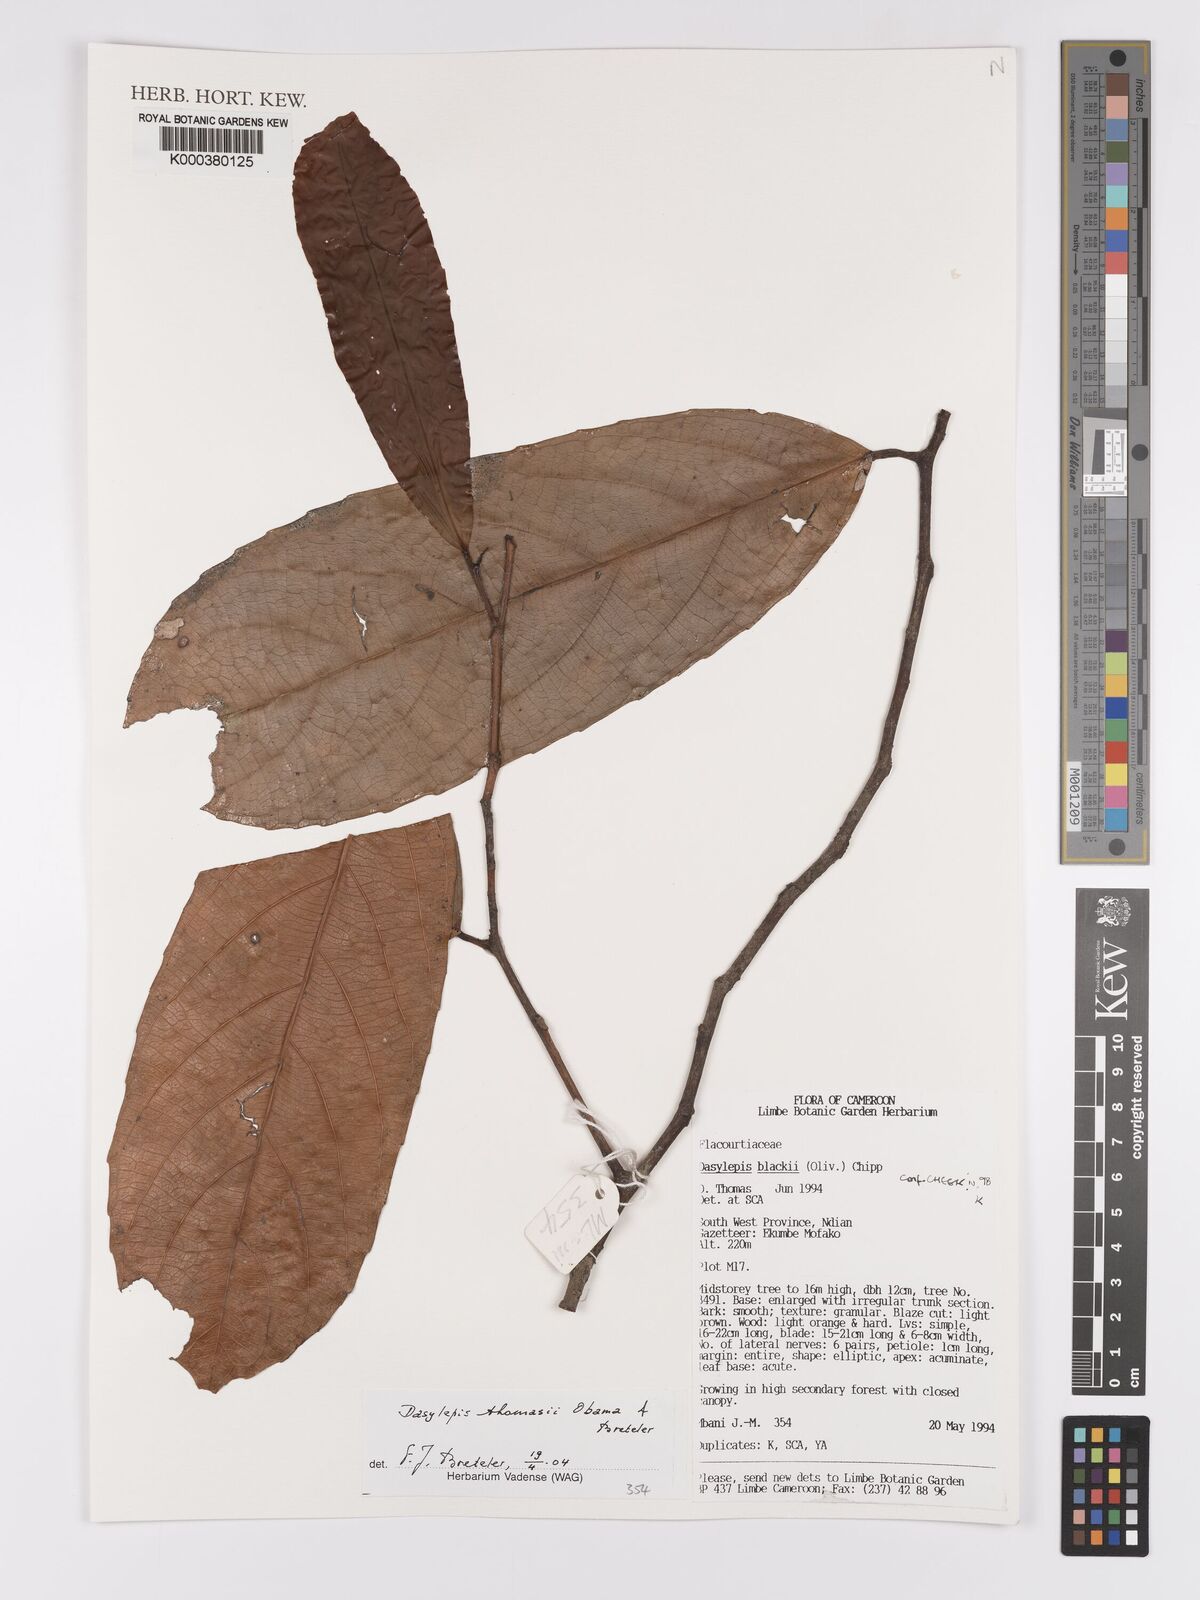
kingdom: Plantae
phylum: Tracheophyta
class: Magnoliopsida
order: Malpighiales
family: Achariaceae
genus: Dasylepis
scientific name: Dasylepis thomasii
